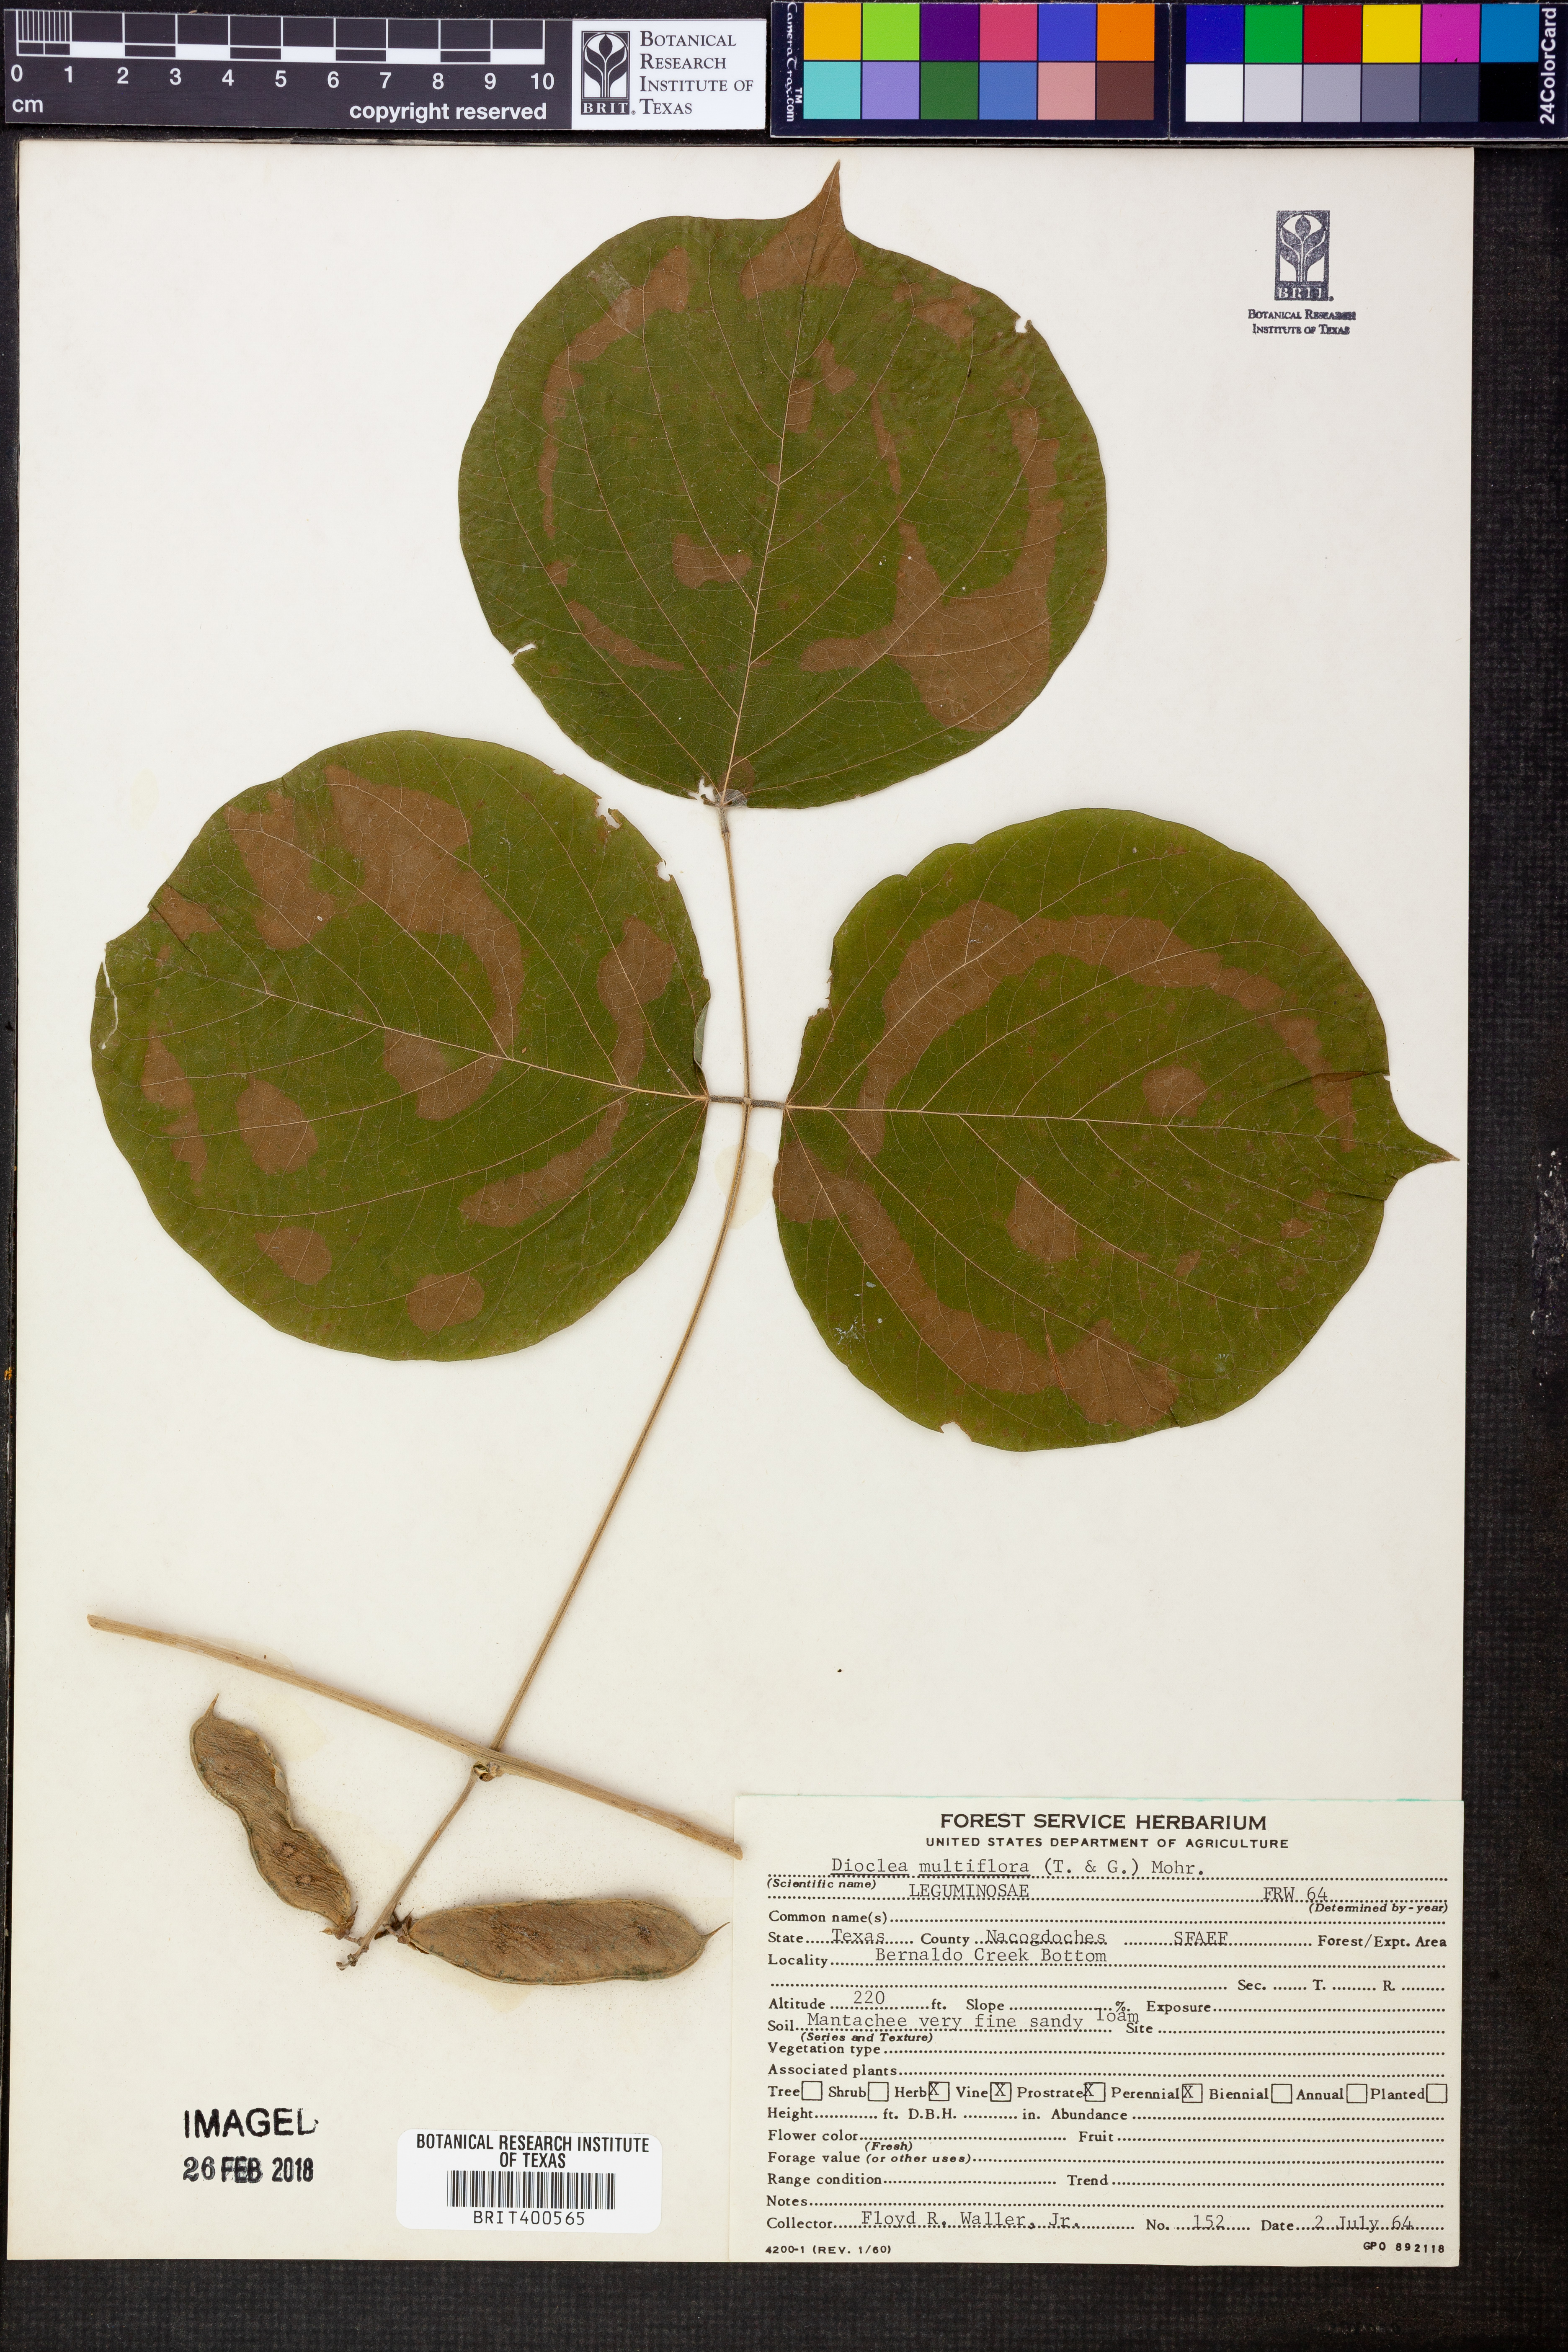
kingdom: Plantae
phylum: Tracheophyta
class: Magnoliopsida
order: Fabales
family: Fabaceae
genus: Lackeya
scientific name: Lackeya multiflora
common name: Boykin's clusterpea
